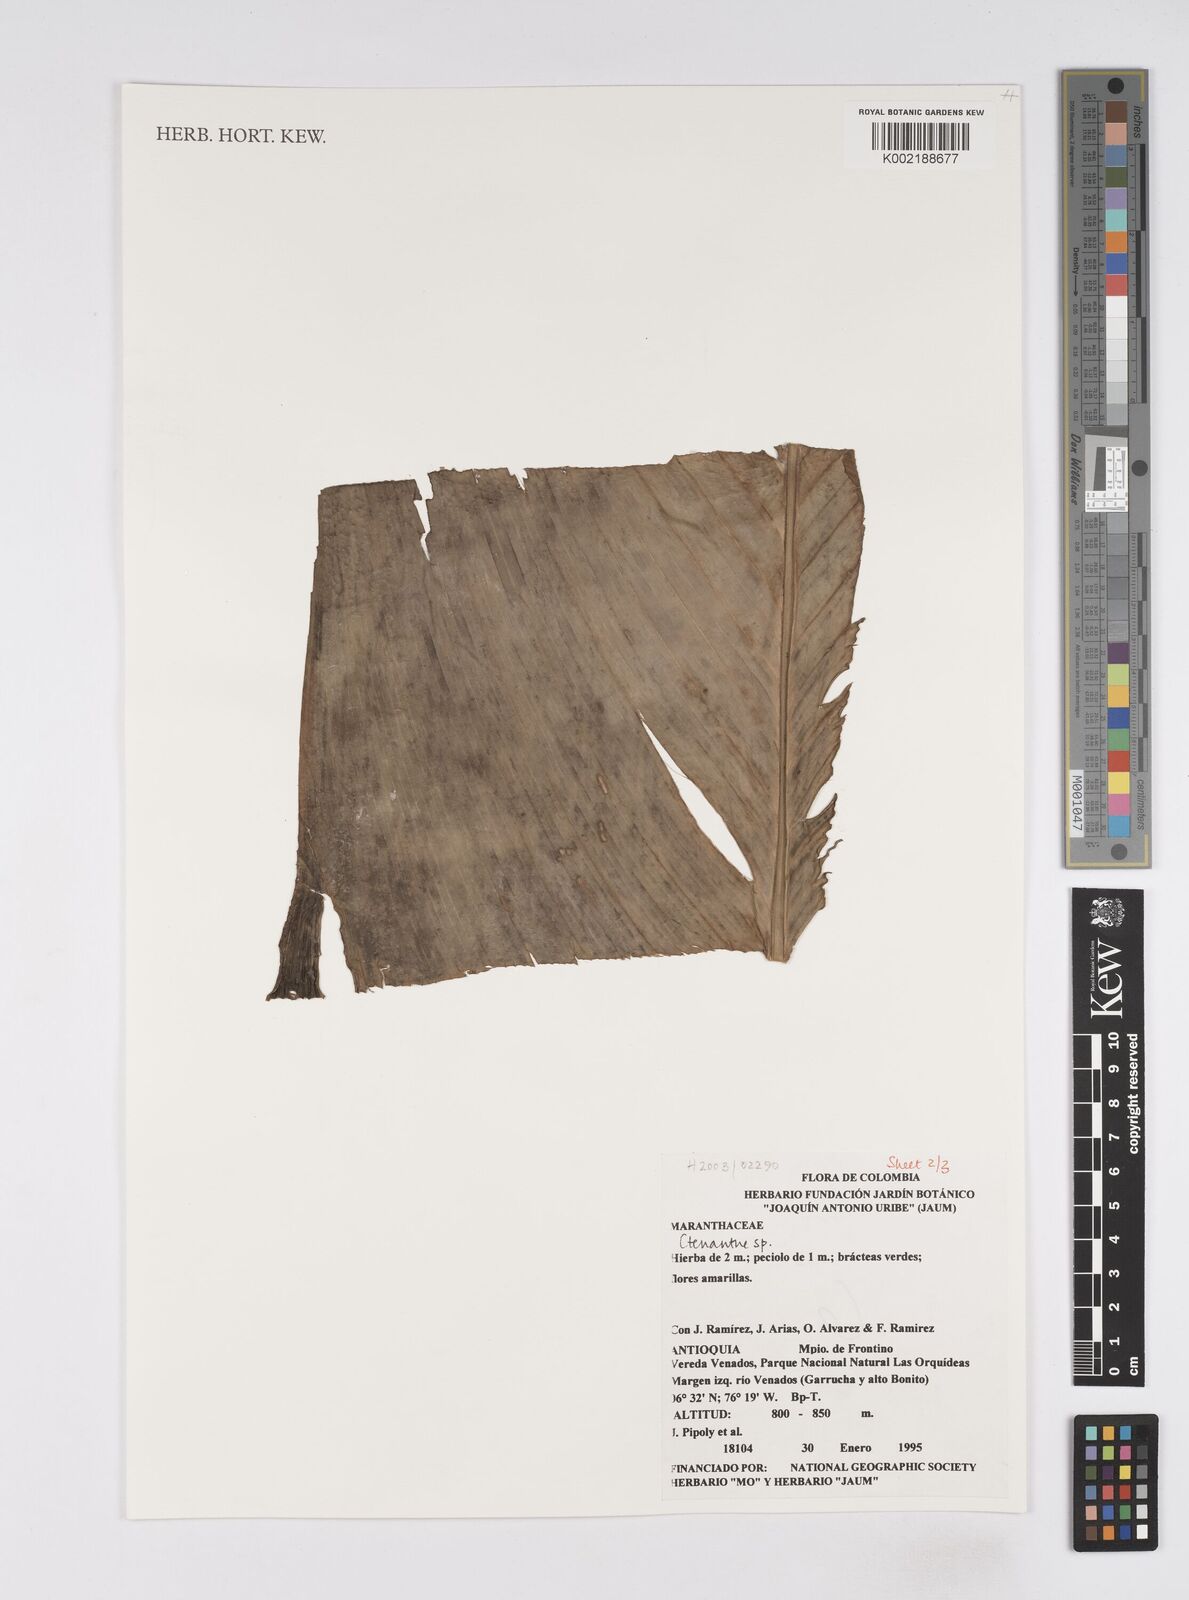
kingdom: Plantae
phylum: Tracheophyta
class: Liliopsida
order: Zingiberales
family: Marantaceae
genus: Ctenanthe
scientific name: Ctenanthe
